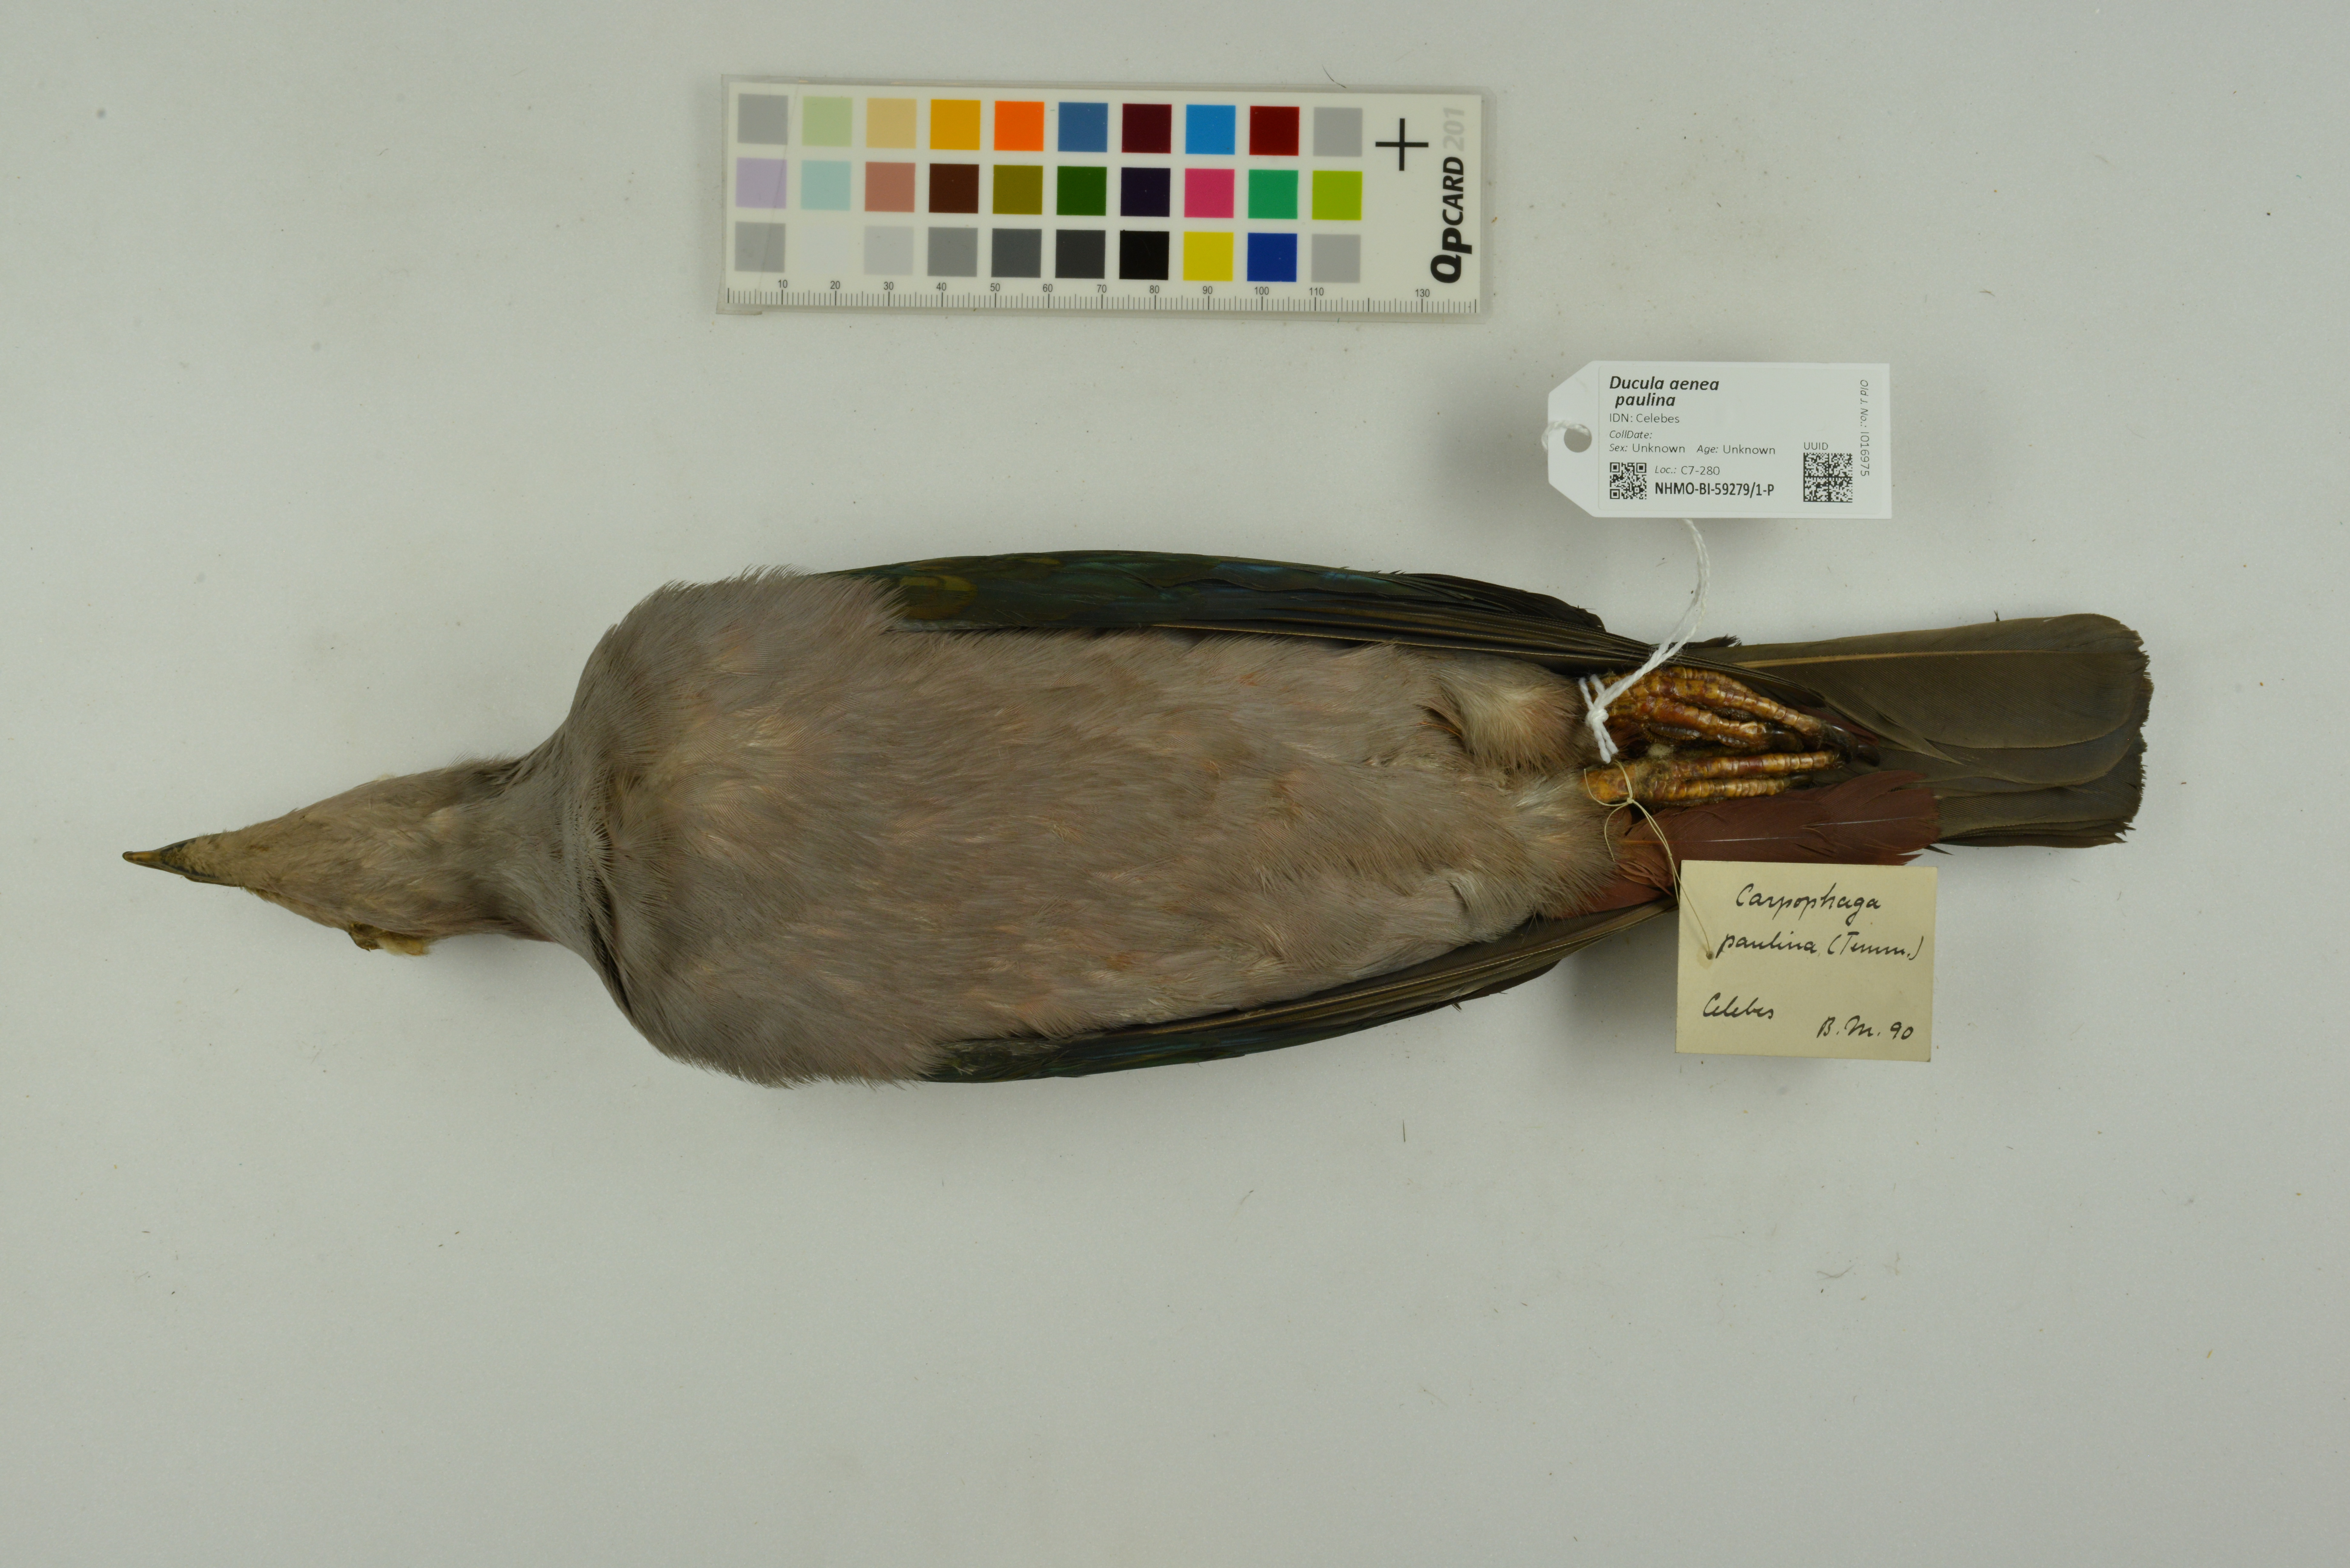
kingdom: Animalia
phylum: Chordata
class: Aves
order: Columbiformes
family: Columbidae
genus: Ducula
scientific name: Ducula aenea
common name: Green imperial pigeon
